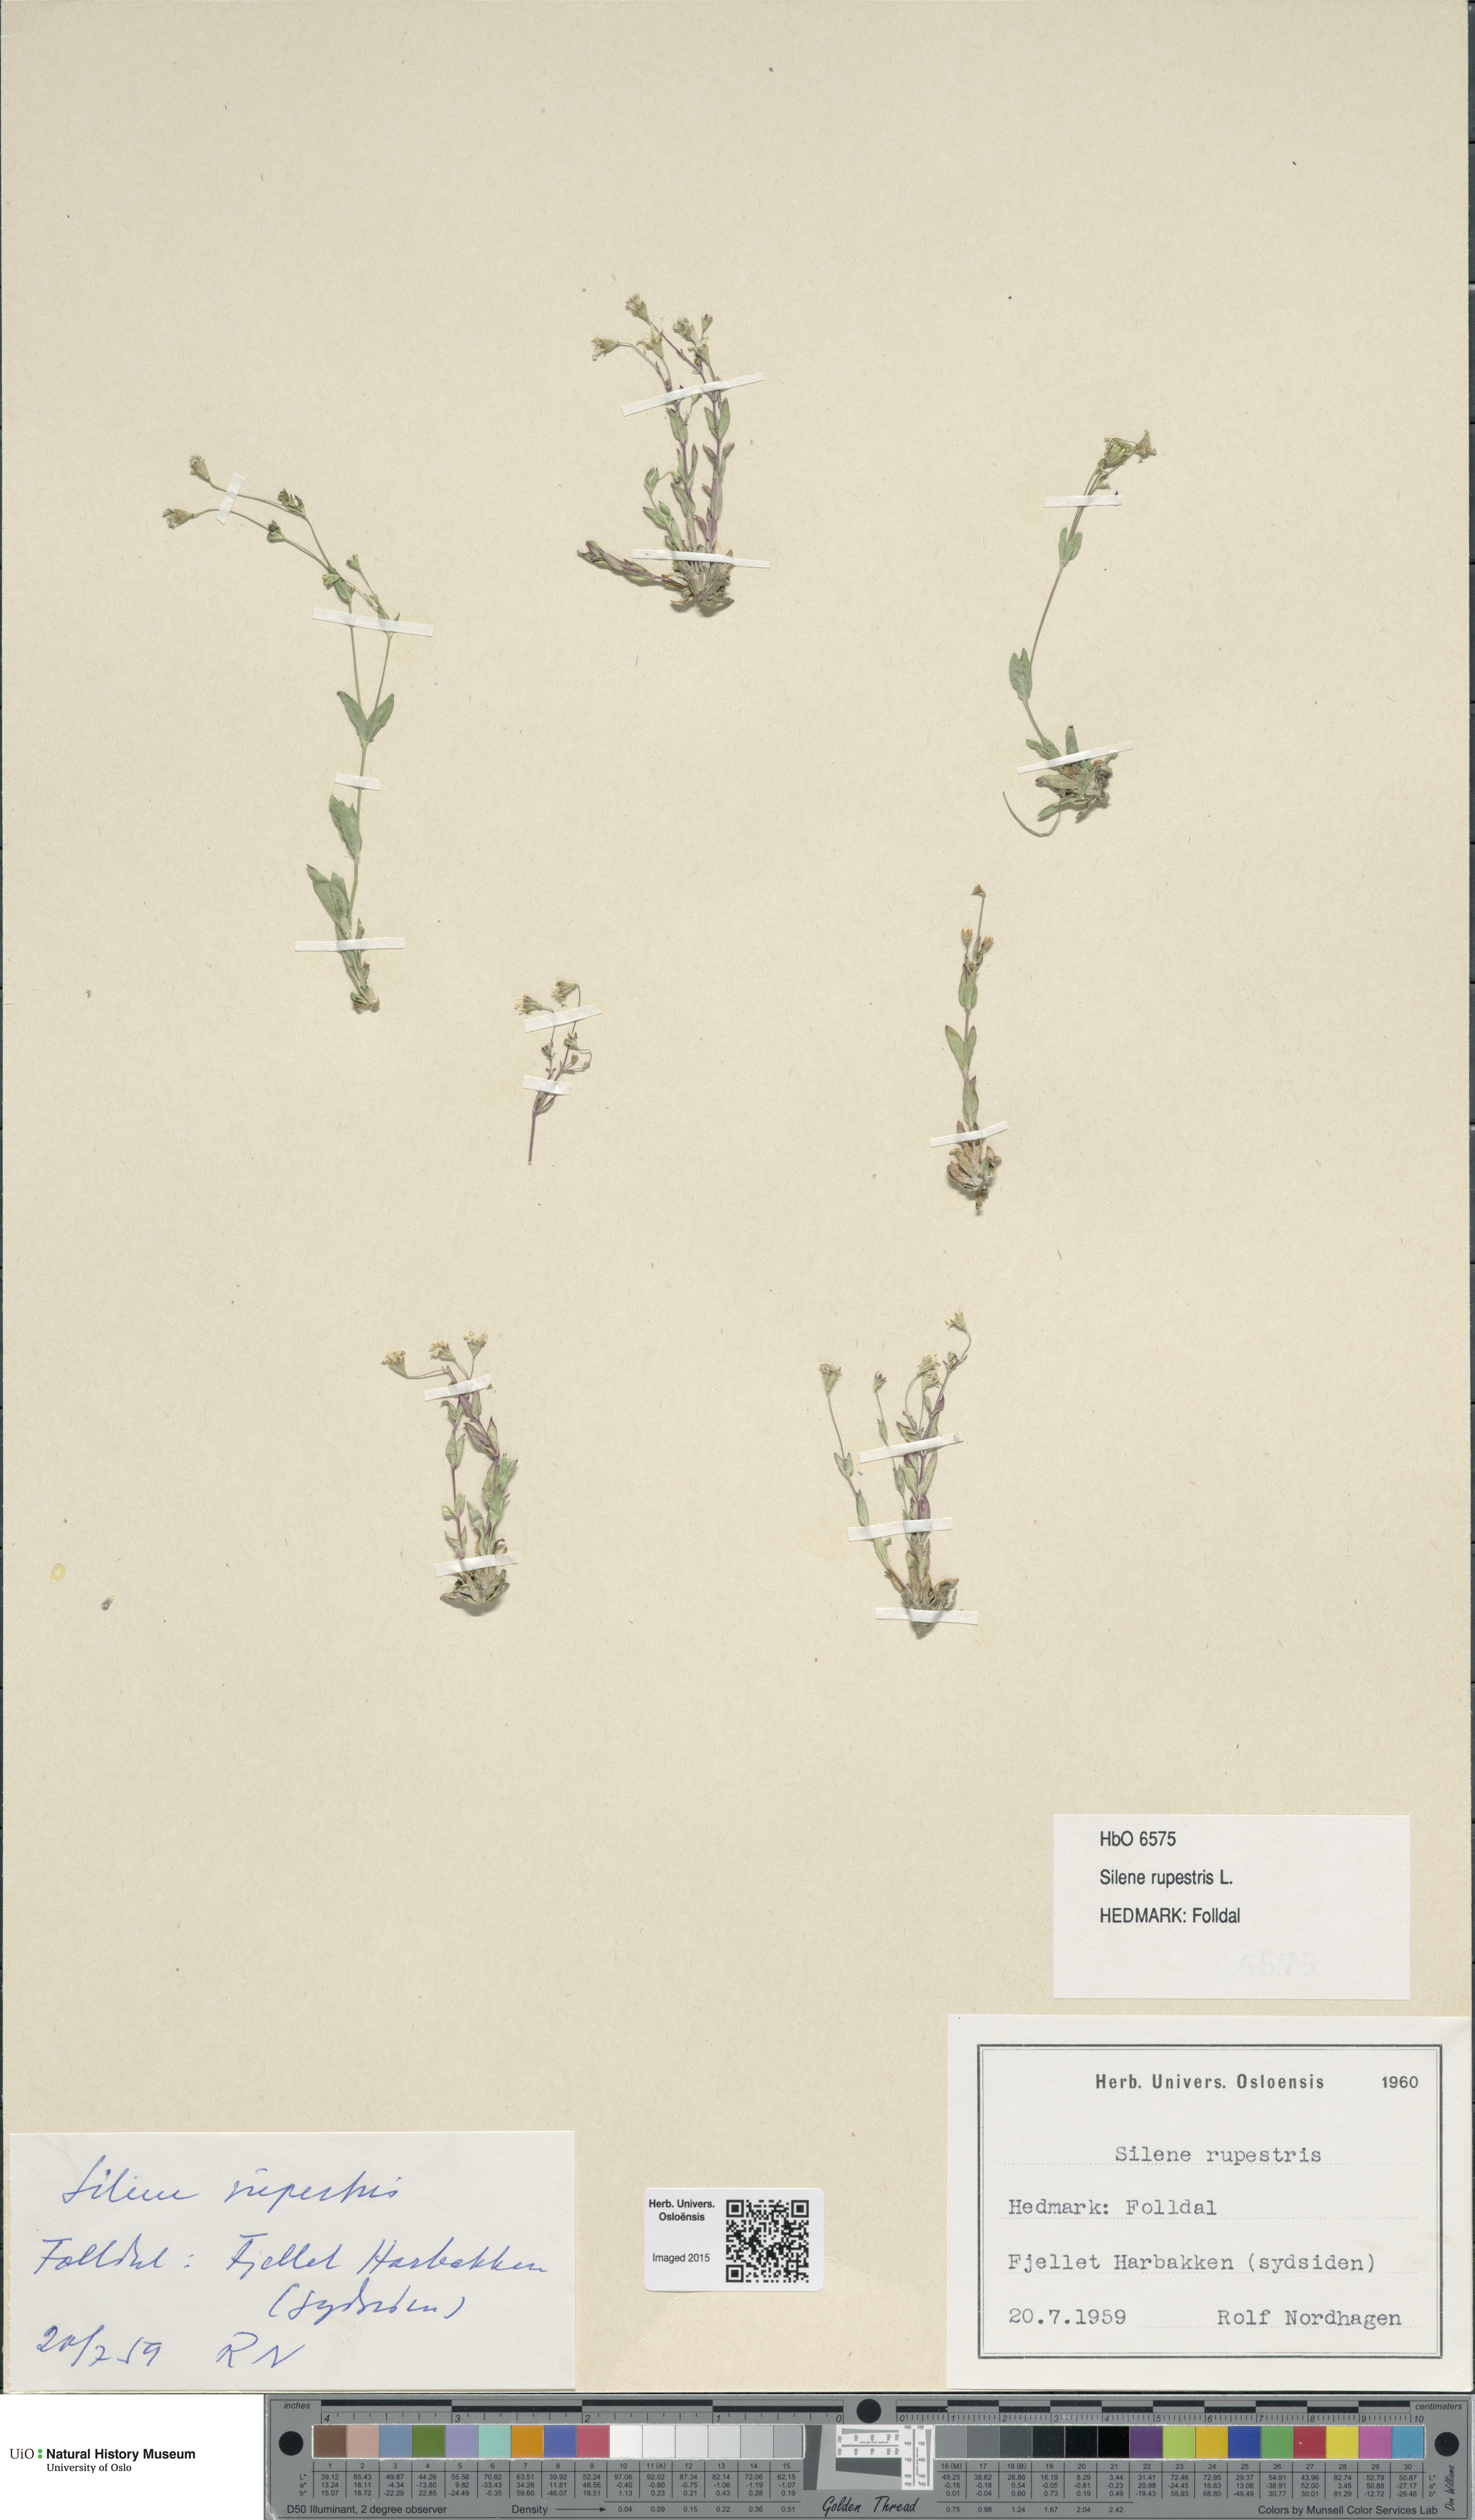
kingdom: Plantae
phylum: Tracheophyta
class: Magnoliopsida
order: Caryophyllales
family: Caryophyllaceae
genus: Atocion
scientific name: Atocion rupestre
